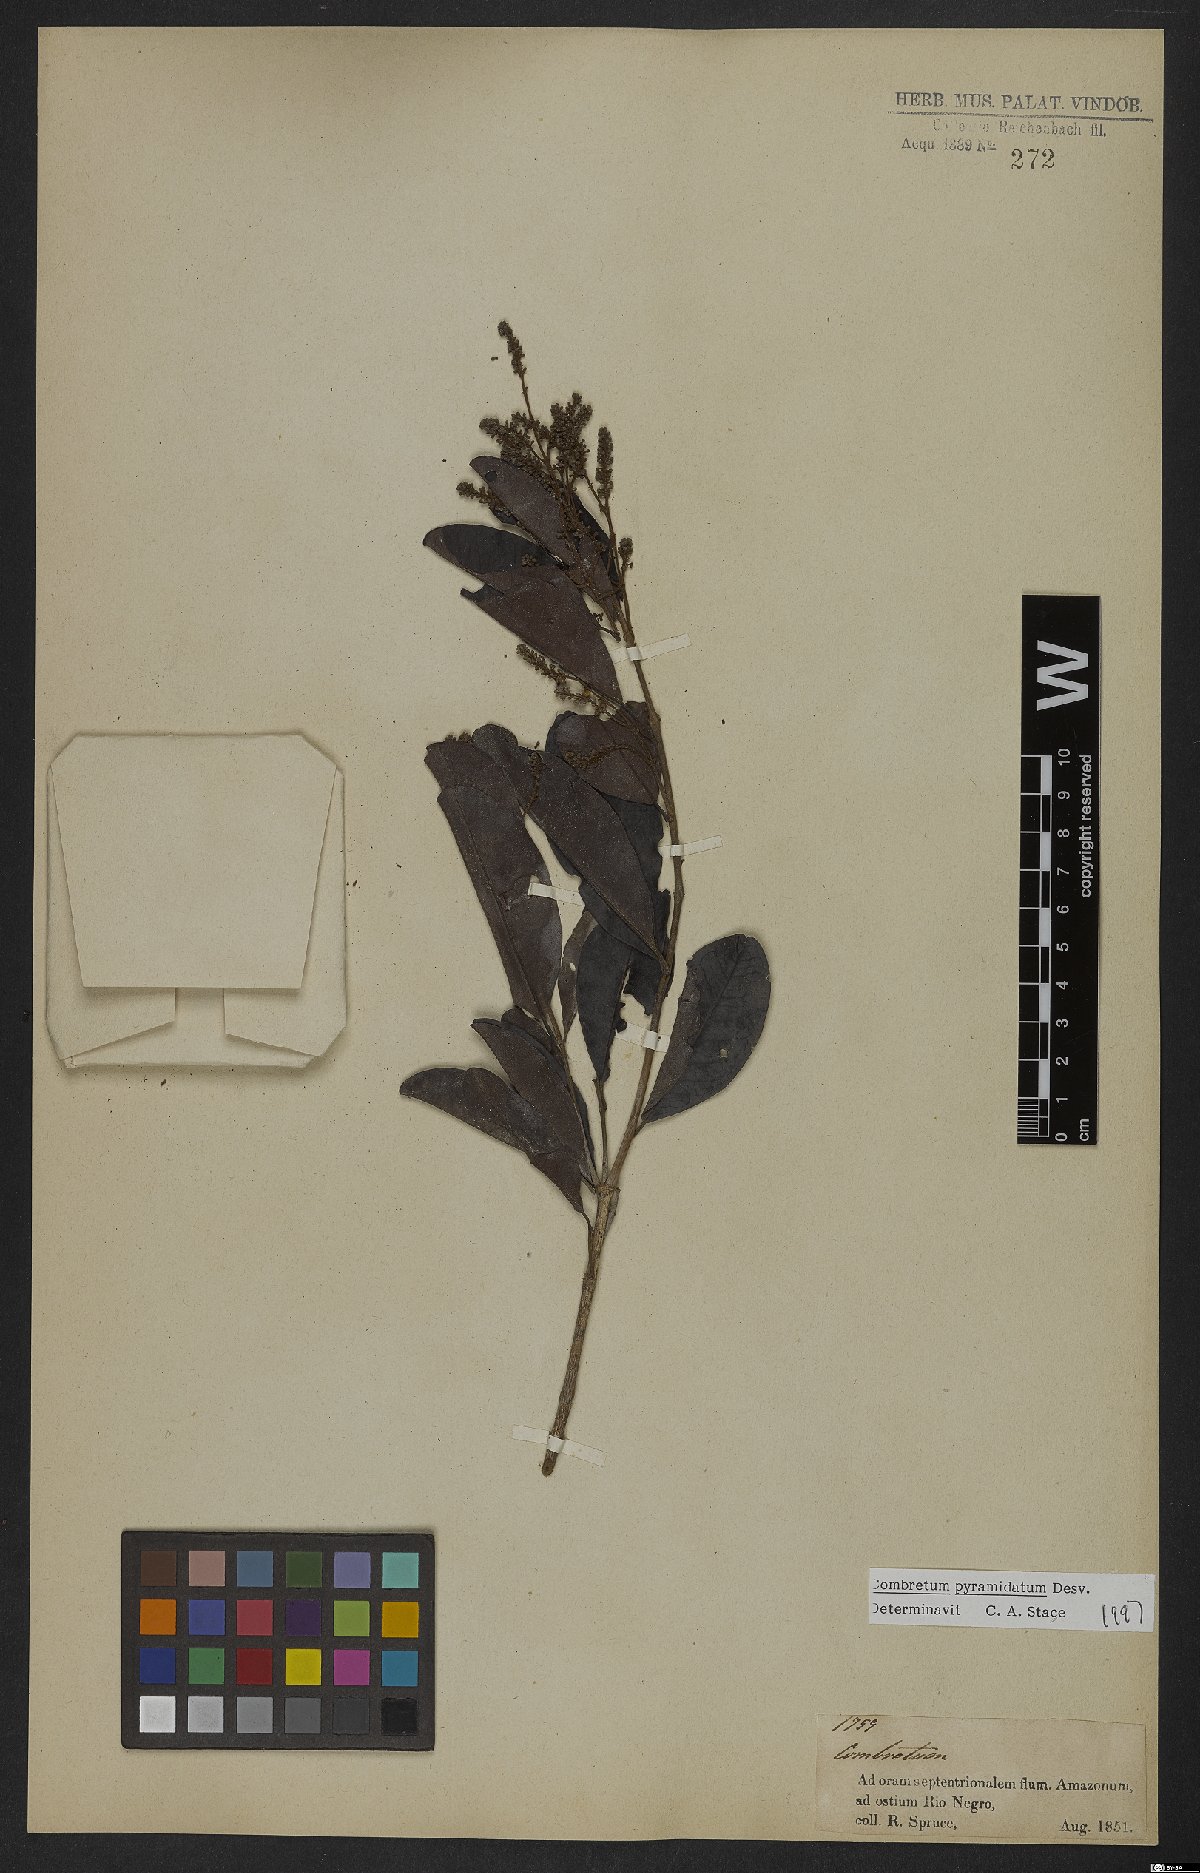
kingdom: Plantae
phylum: Tracheophyta
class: Magnoliopsida
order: Myrtales
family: Combretaceae
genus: Combretum
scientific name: Combretum pyramidatum
